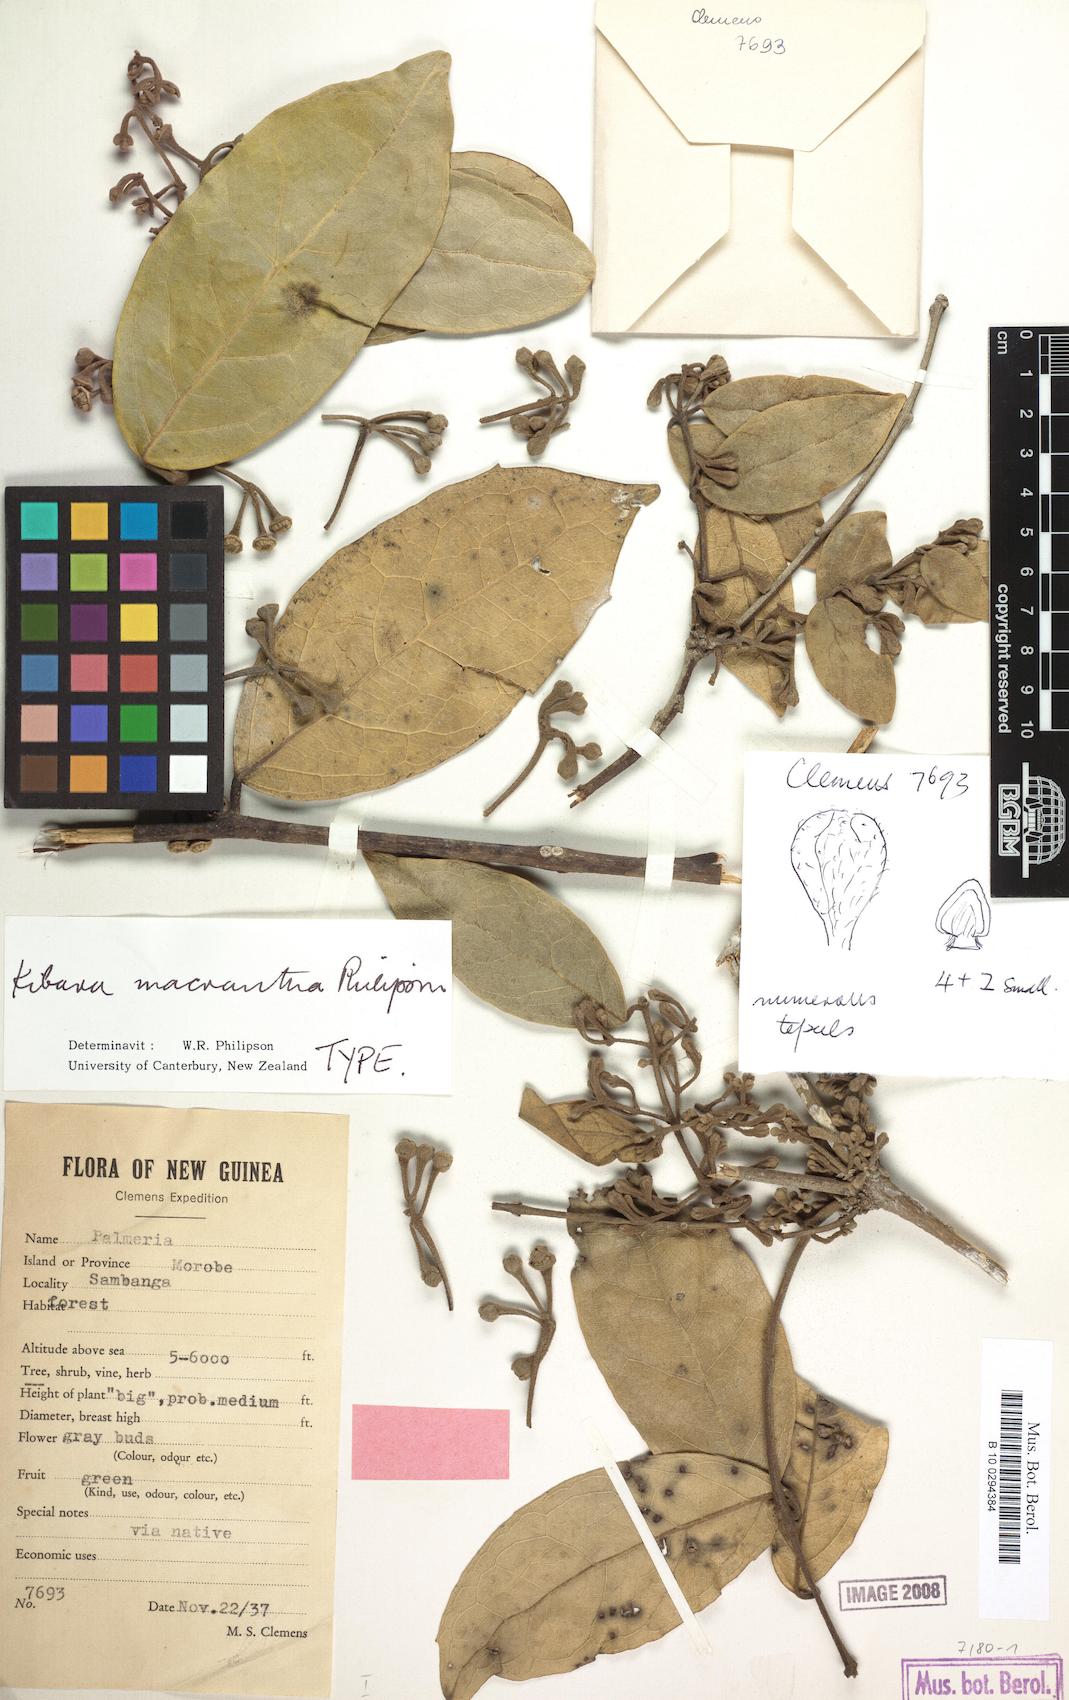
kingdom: Plantae
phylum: Tracheophyta
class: Magnoliopsida
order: Laurales
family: Monimiaceae
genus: Kibara
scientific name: Kibara macrantha
